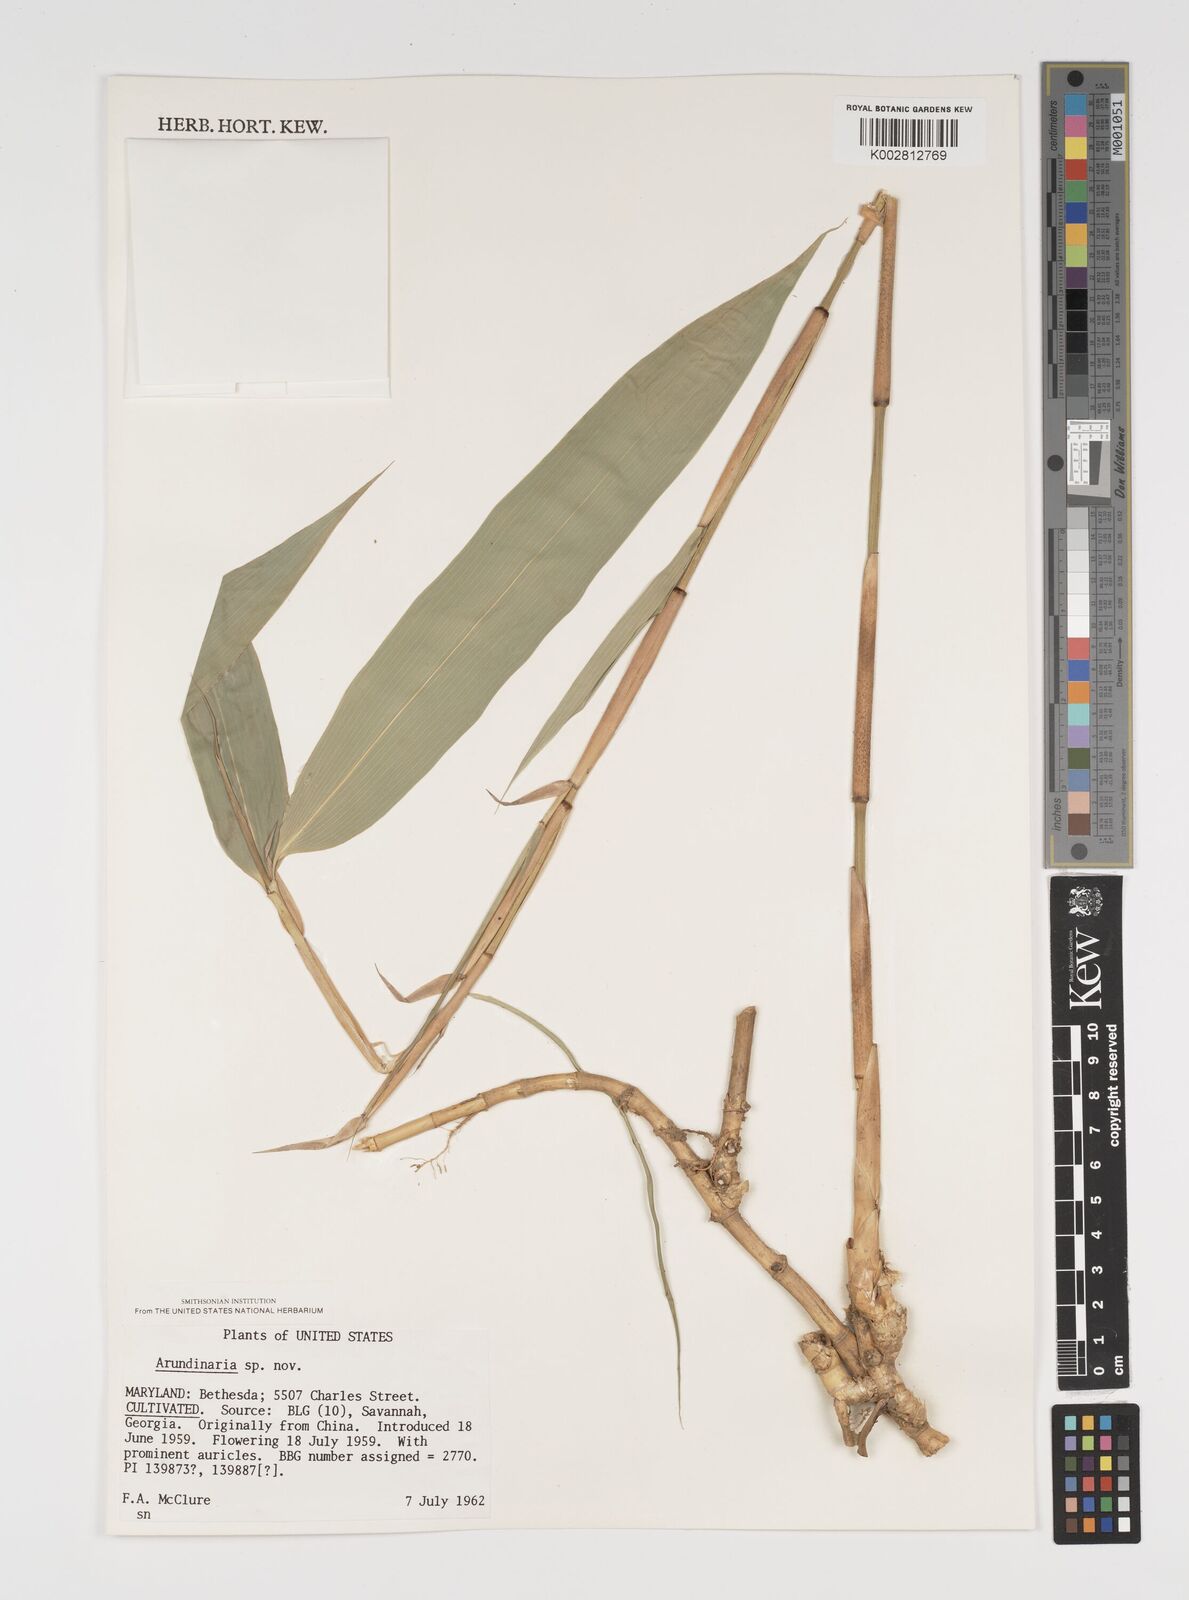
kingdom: Plantae
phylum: Tracheophyta
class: Liliopsida
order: Poales
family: Poaceae
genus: Arundinaria
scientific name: Arundinaria
